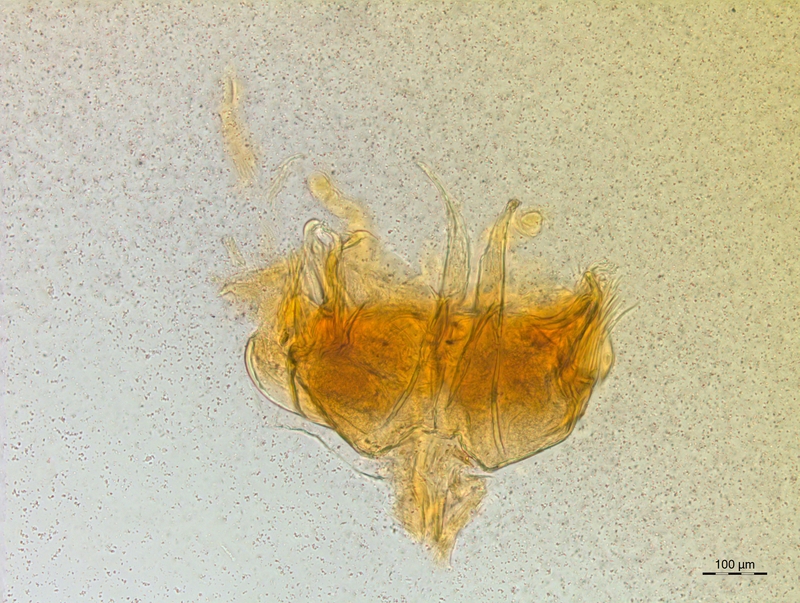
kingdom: Animalia
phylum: Arthropoda
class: Diplopoda
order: Chordeumatida
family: Craspedosomatidae
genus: Craspedosoma
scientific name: Craspedosoma alemannicum
